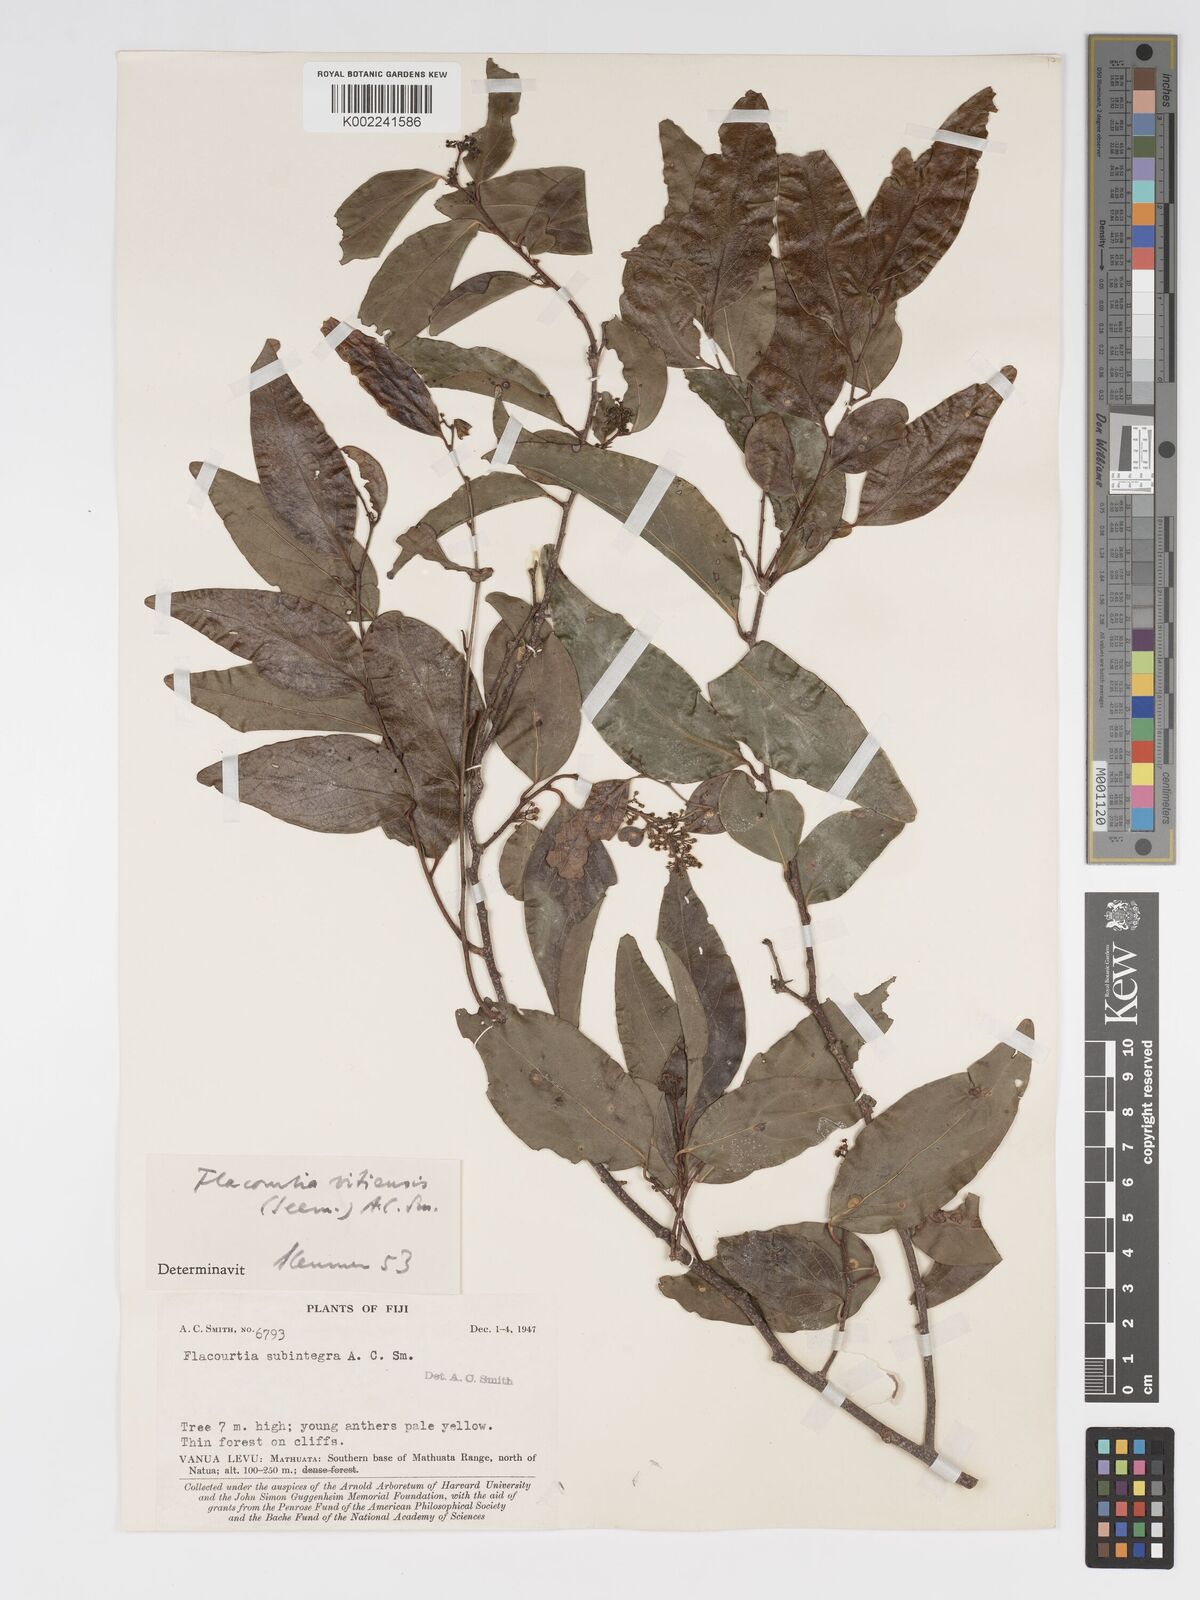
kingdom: Plantae
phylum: Tracheophyta
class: Magnoliopsida
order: Malpighiales
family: Salicaceae
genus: Flacourtia
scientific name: Flacourtia vitiensis
